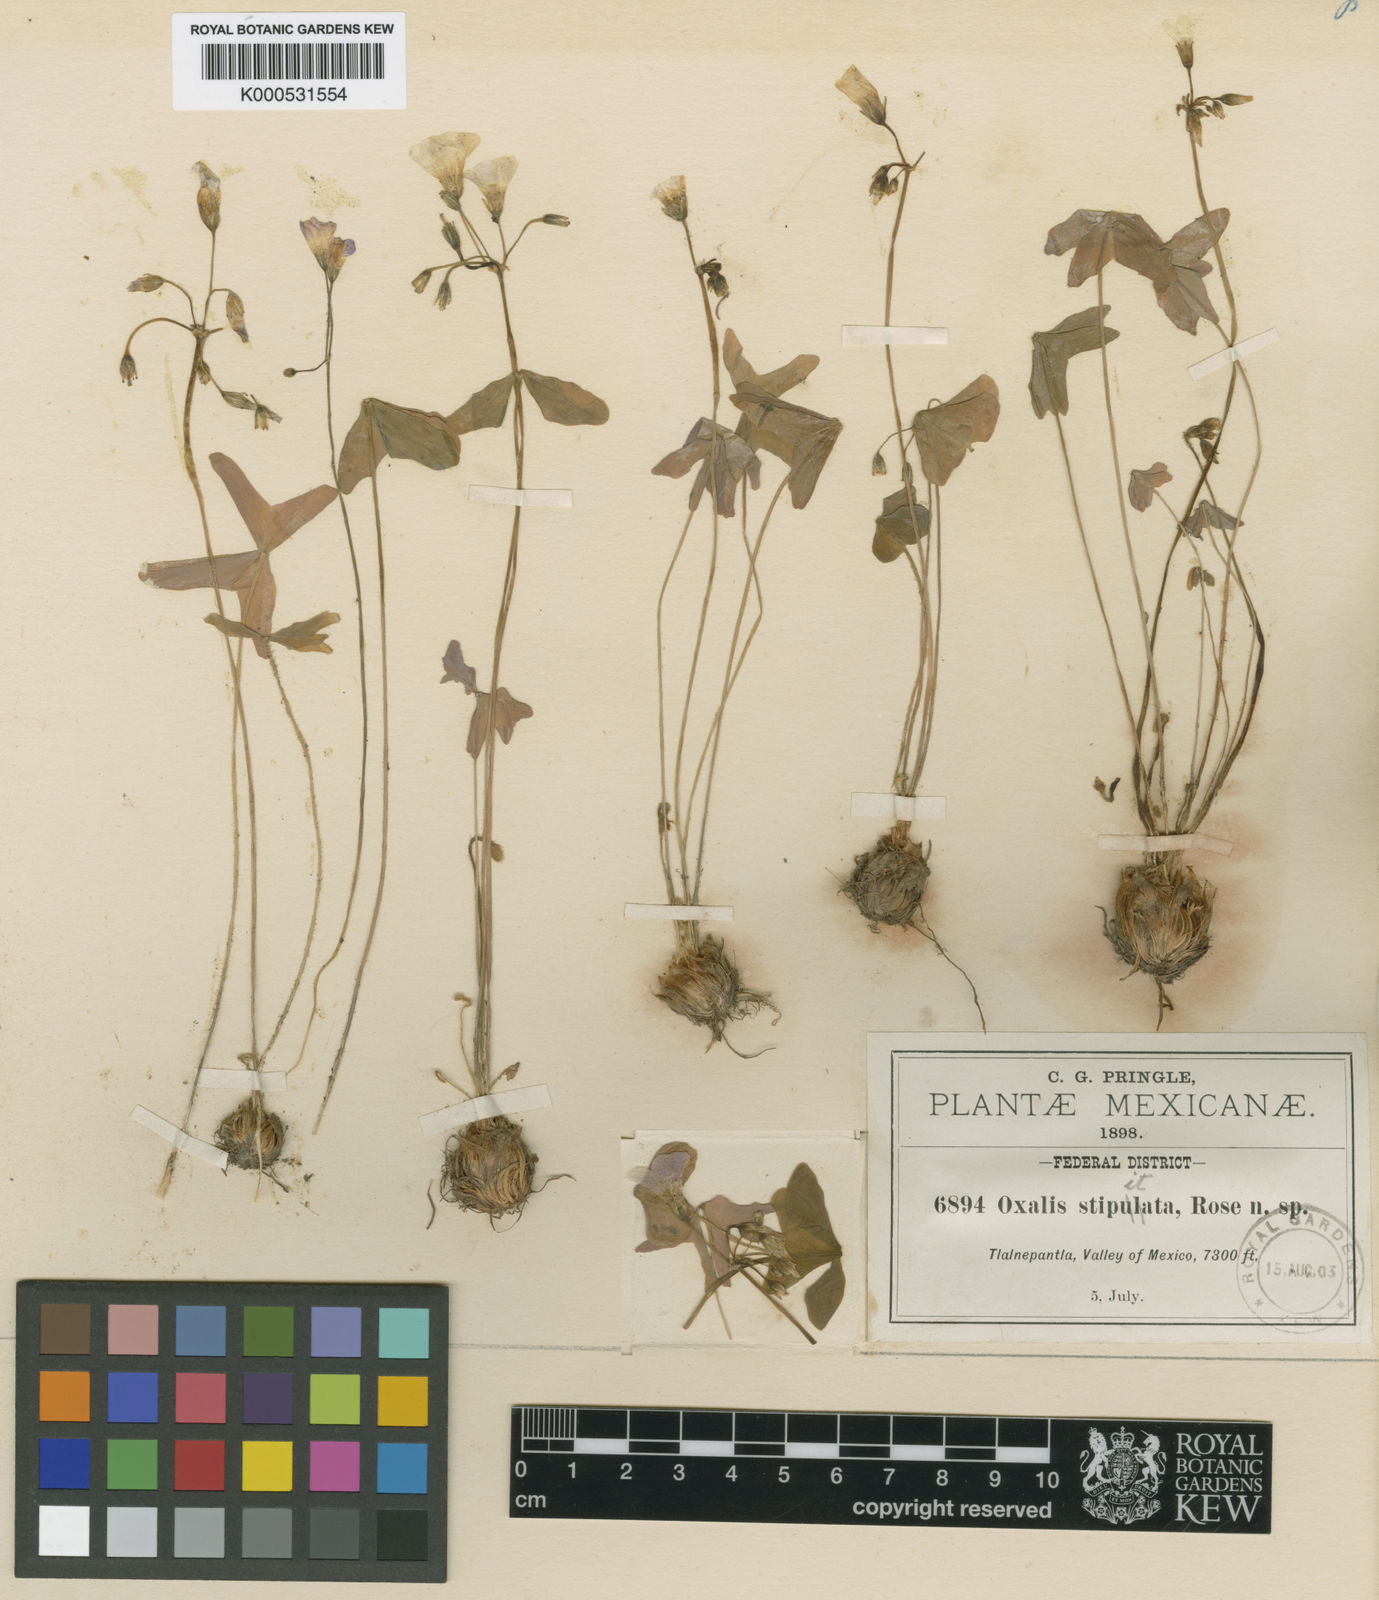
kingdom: Plantae
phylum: Tracheophyta
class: Magnoliopsida
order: Oxalidales
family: Oxalidaceae
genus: Oxalis
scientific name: Oxalis
